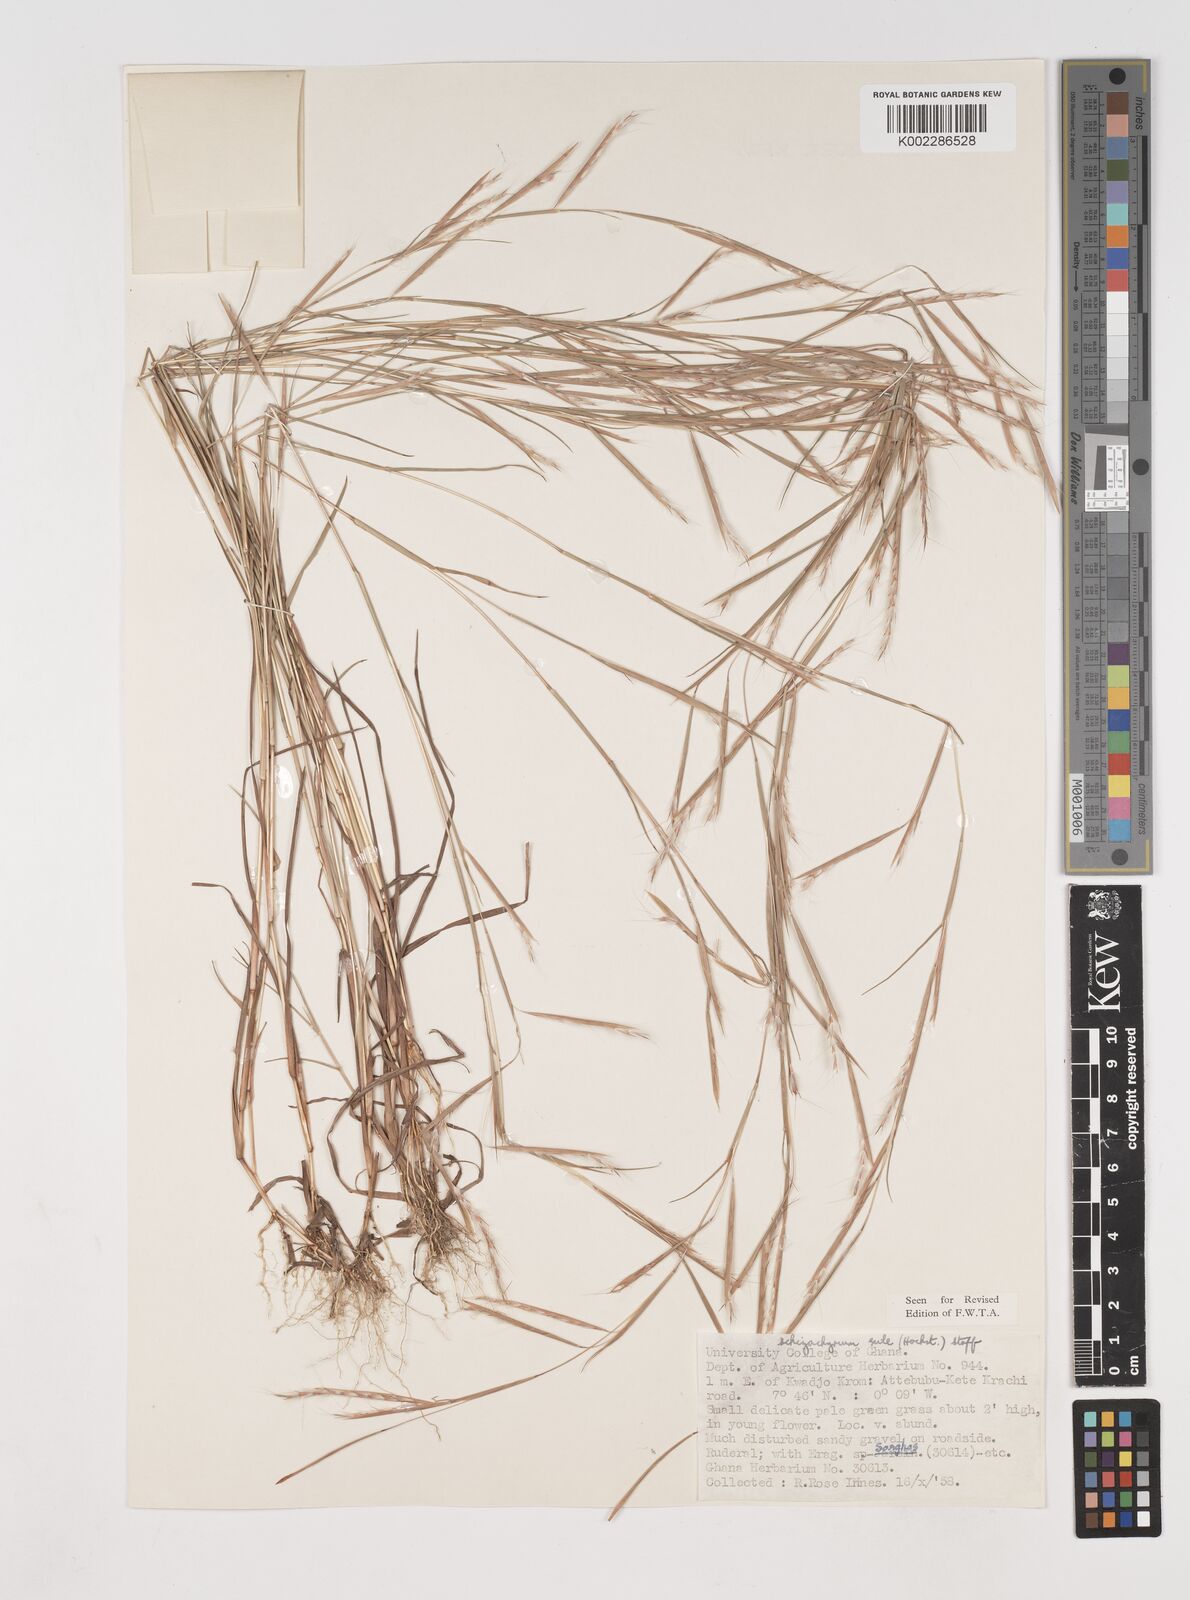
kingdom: Plantae
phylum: Tracheophyta
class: Liliopsida
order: Poales
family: Poaceae
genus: Schizachyrium
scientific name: Schizachyrium exile
